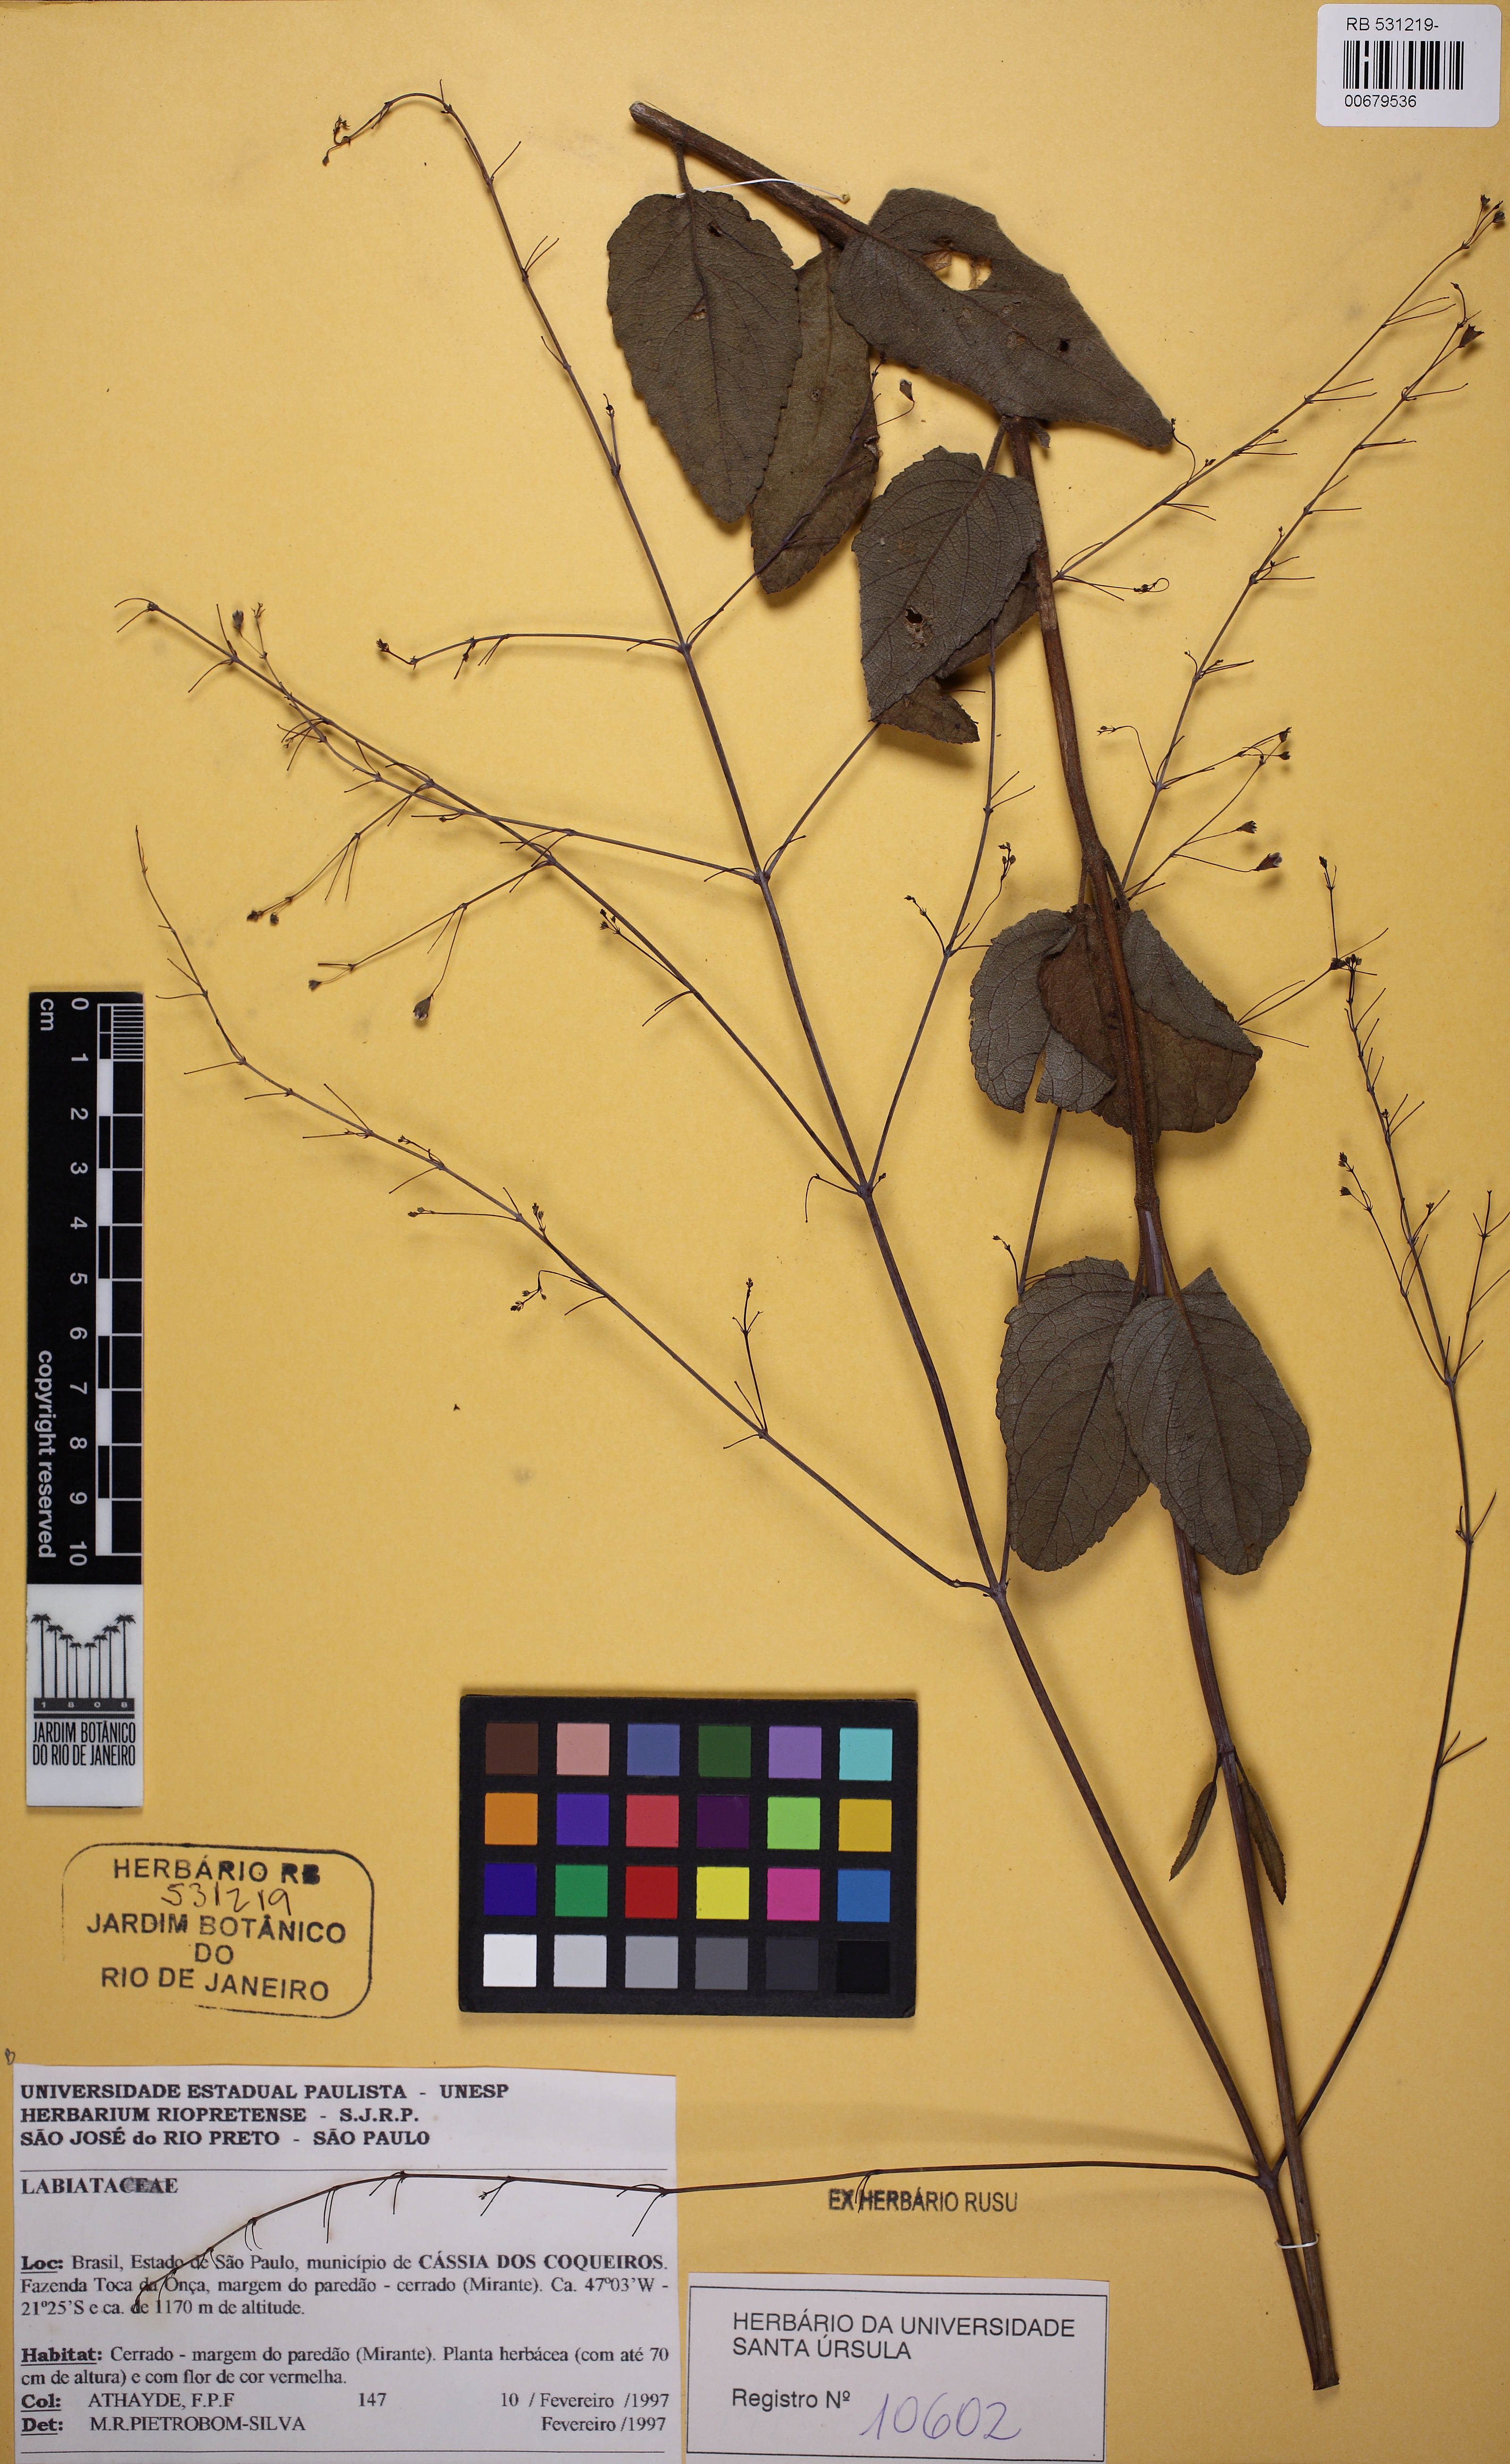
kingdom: Plantae
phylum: Tracheophyta
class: Magnoliopsida
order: Lamiales
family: Lamiaceae
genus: Hypenia
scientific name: Hypenia
